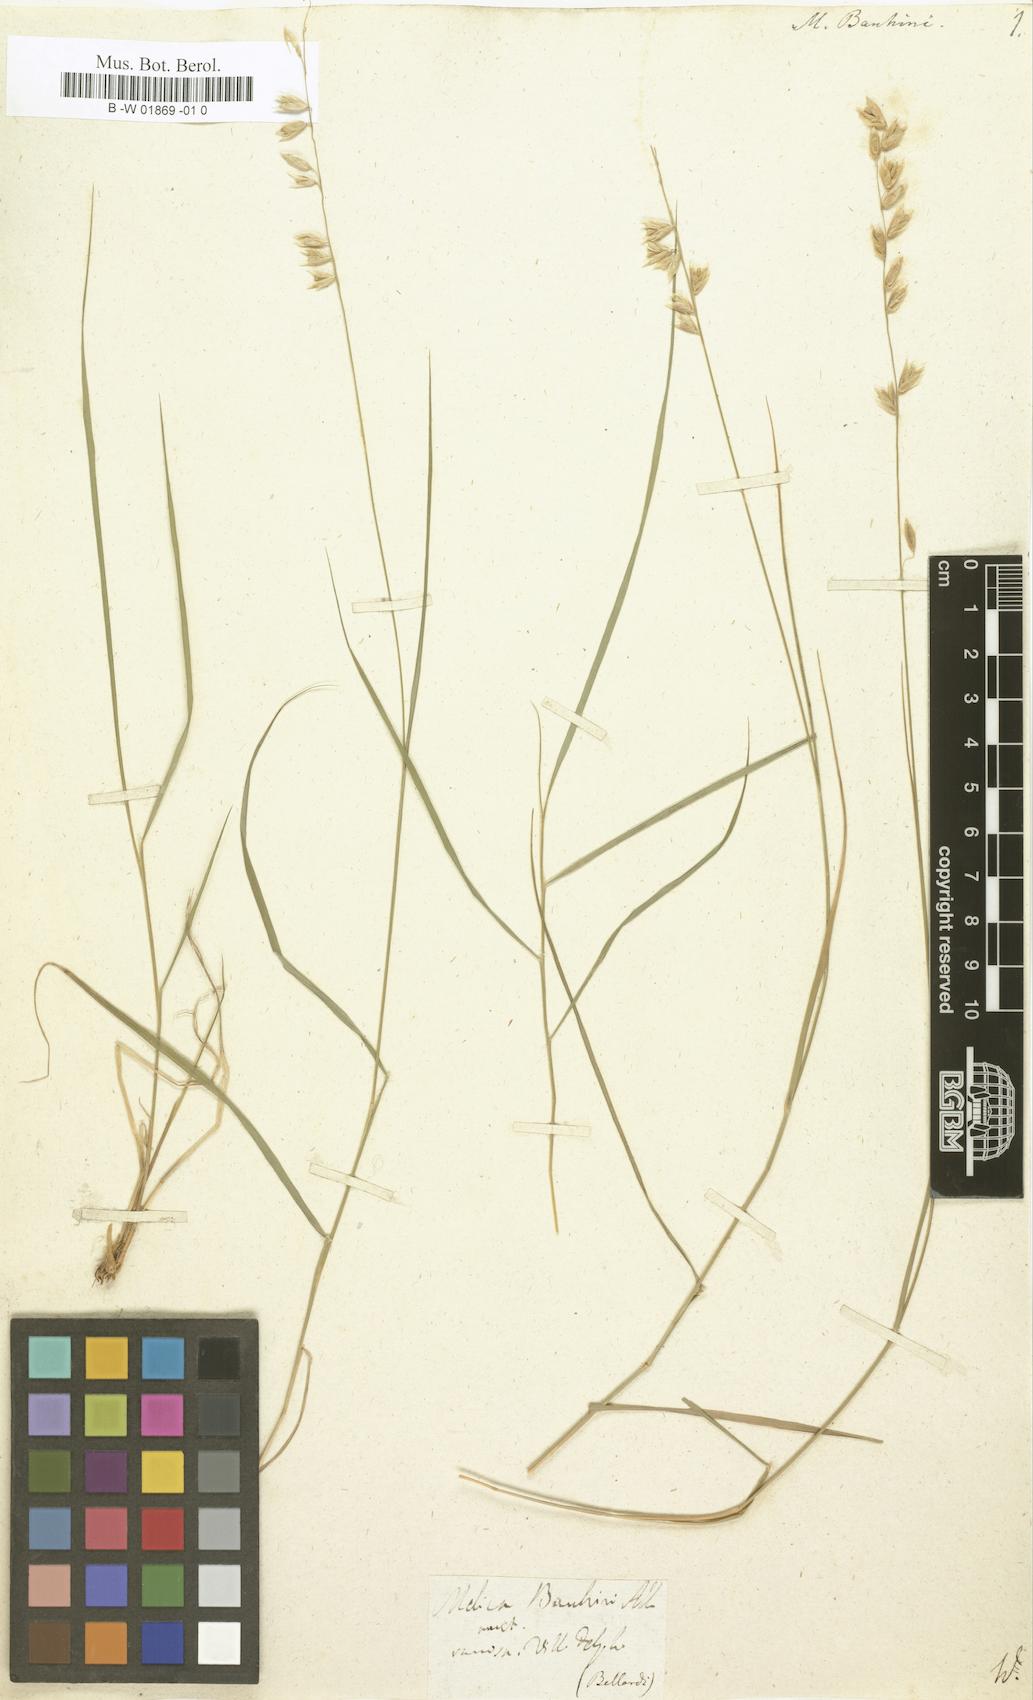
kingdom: Plantae
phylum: Tracheophyta
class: Liliopsida
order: Poales
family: Poaceae
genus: Melica
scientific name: Melica bauhini
